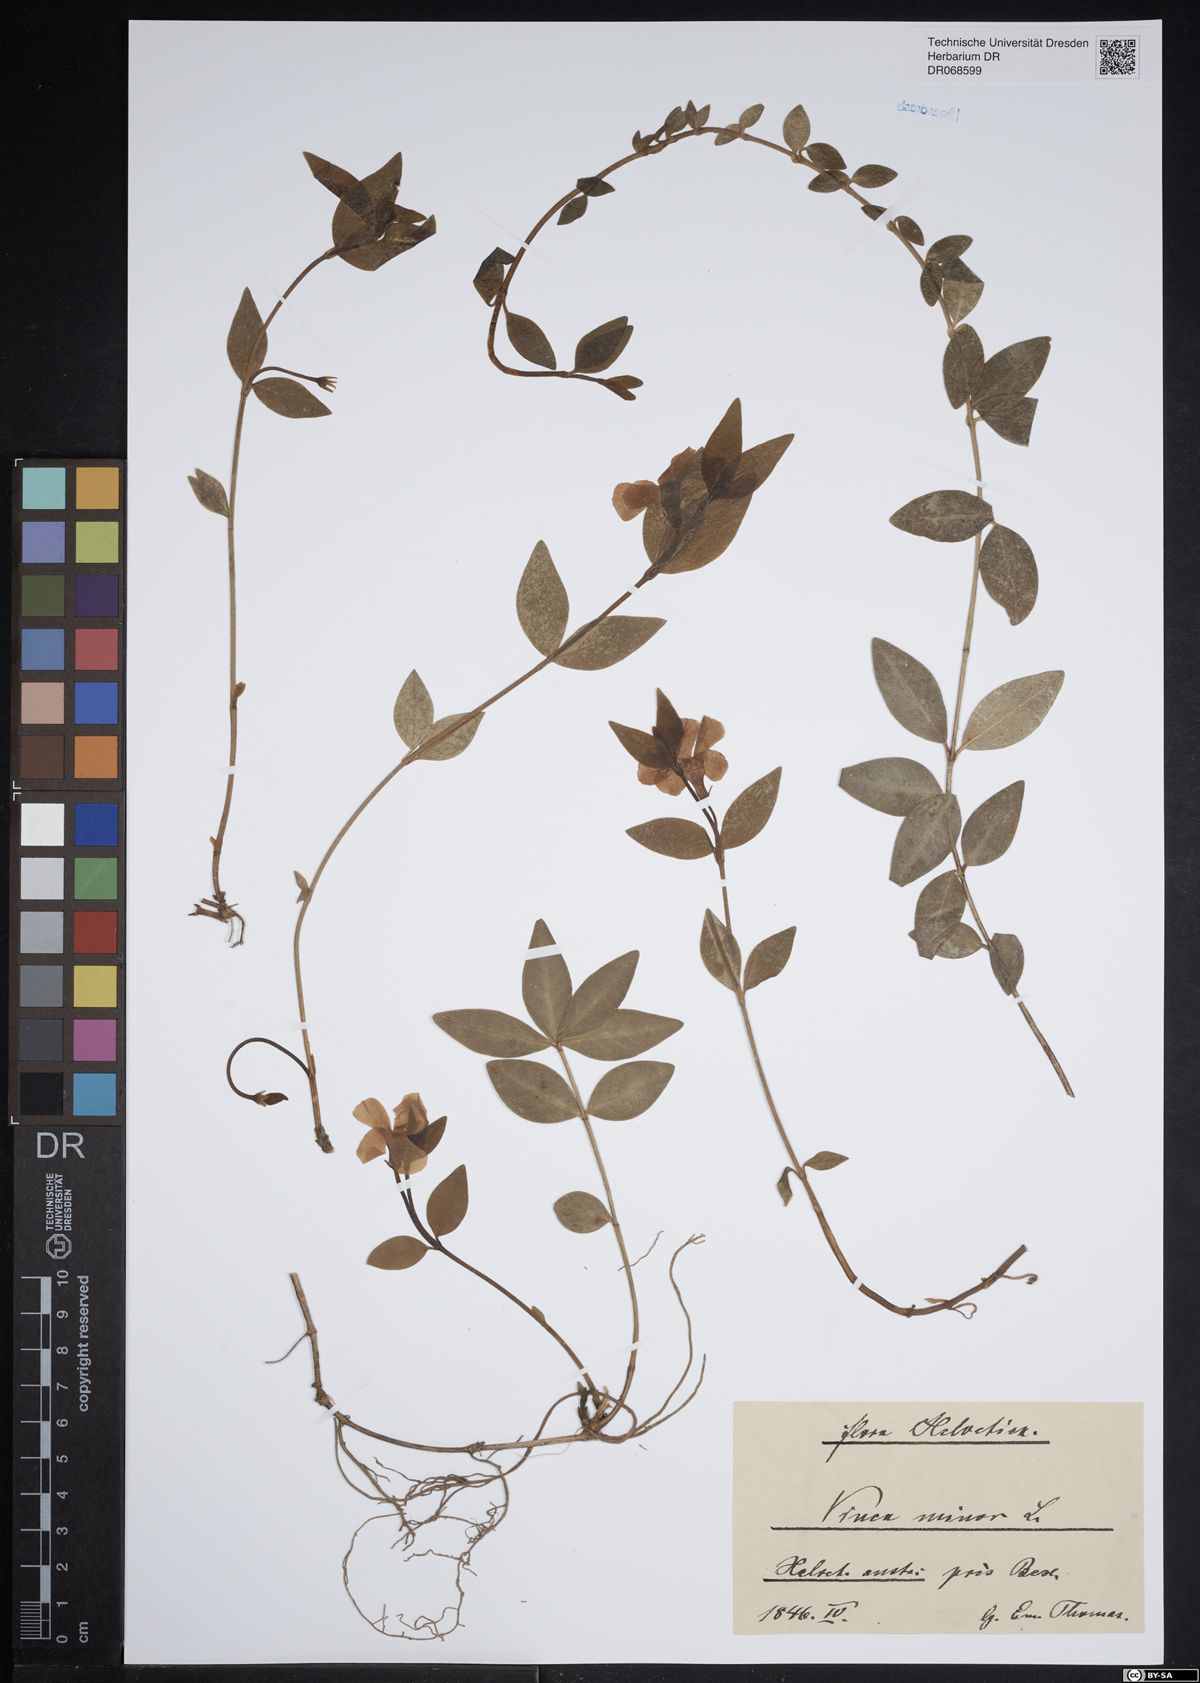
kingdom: Plantae
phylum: Tracheophyta
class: Magnoliopsida
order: Gentianales
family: Apocynaceae
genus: Vinca
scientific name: Vinca minor
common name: Lesser periwinkle
